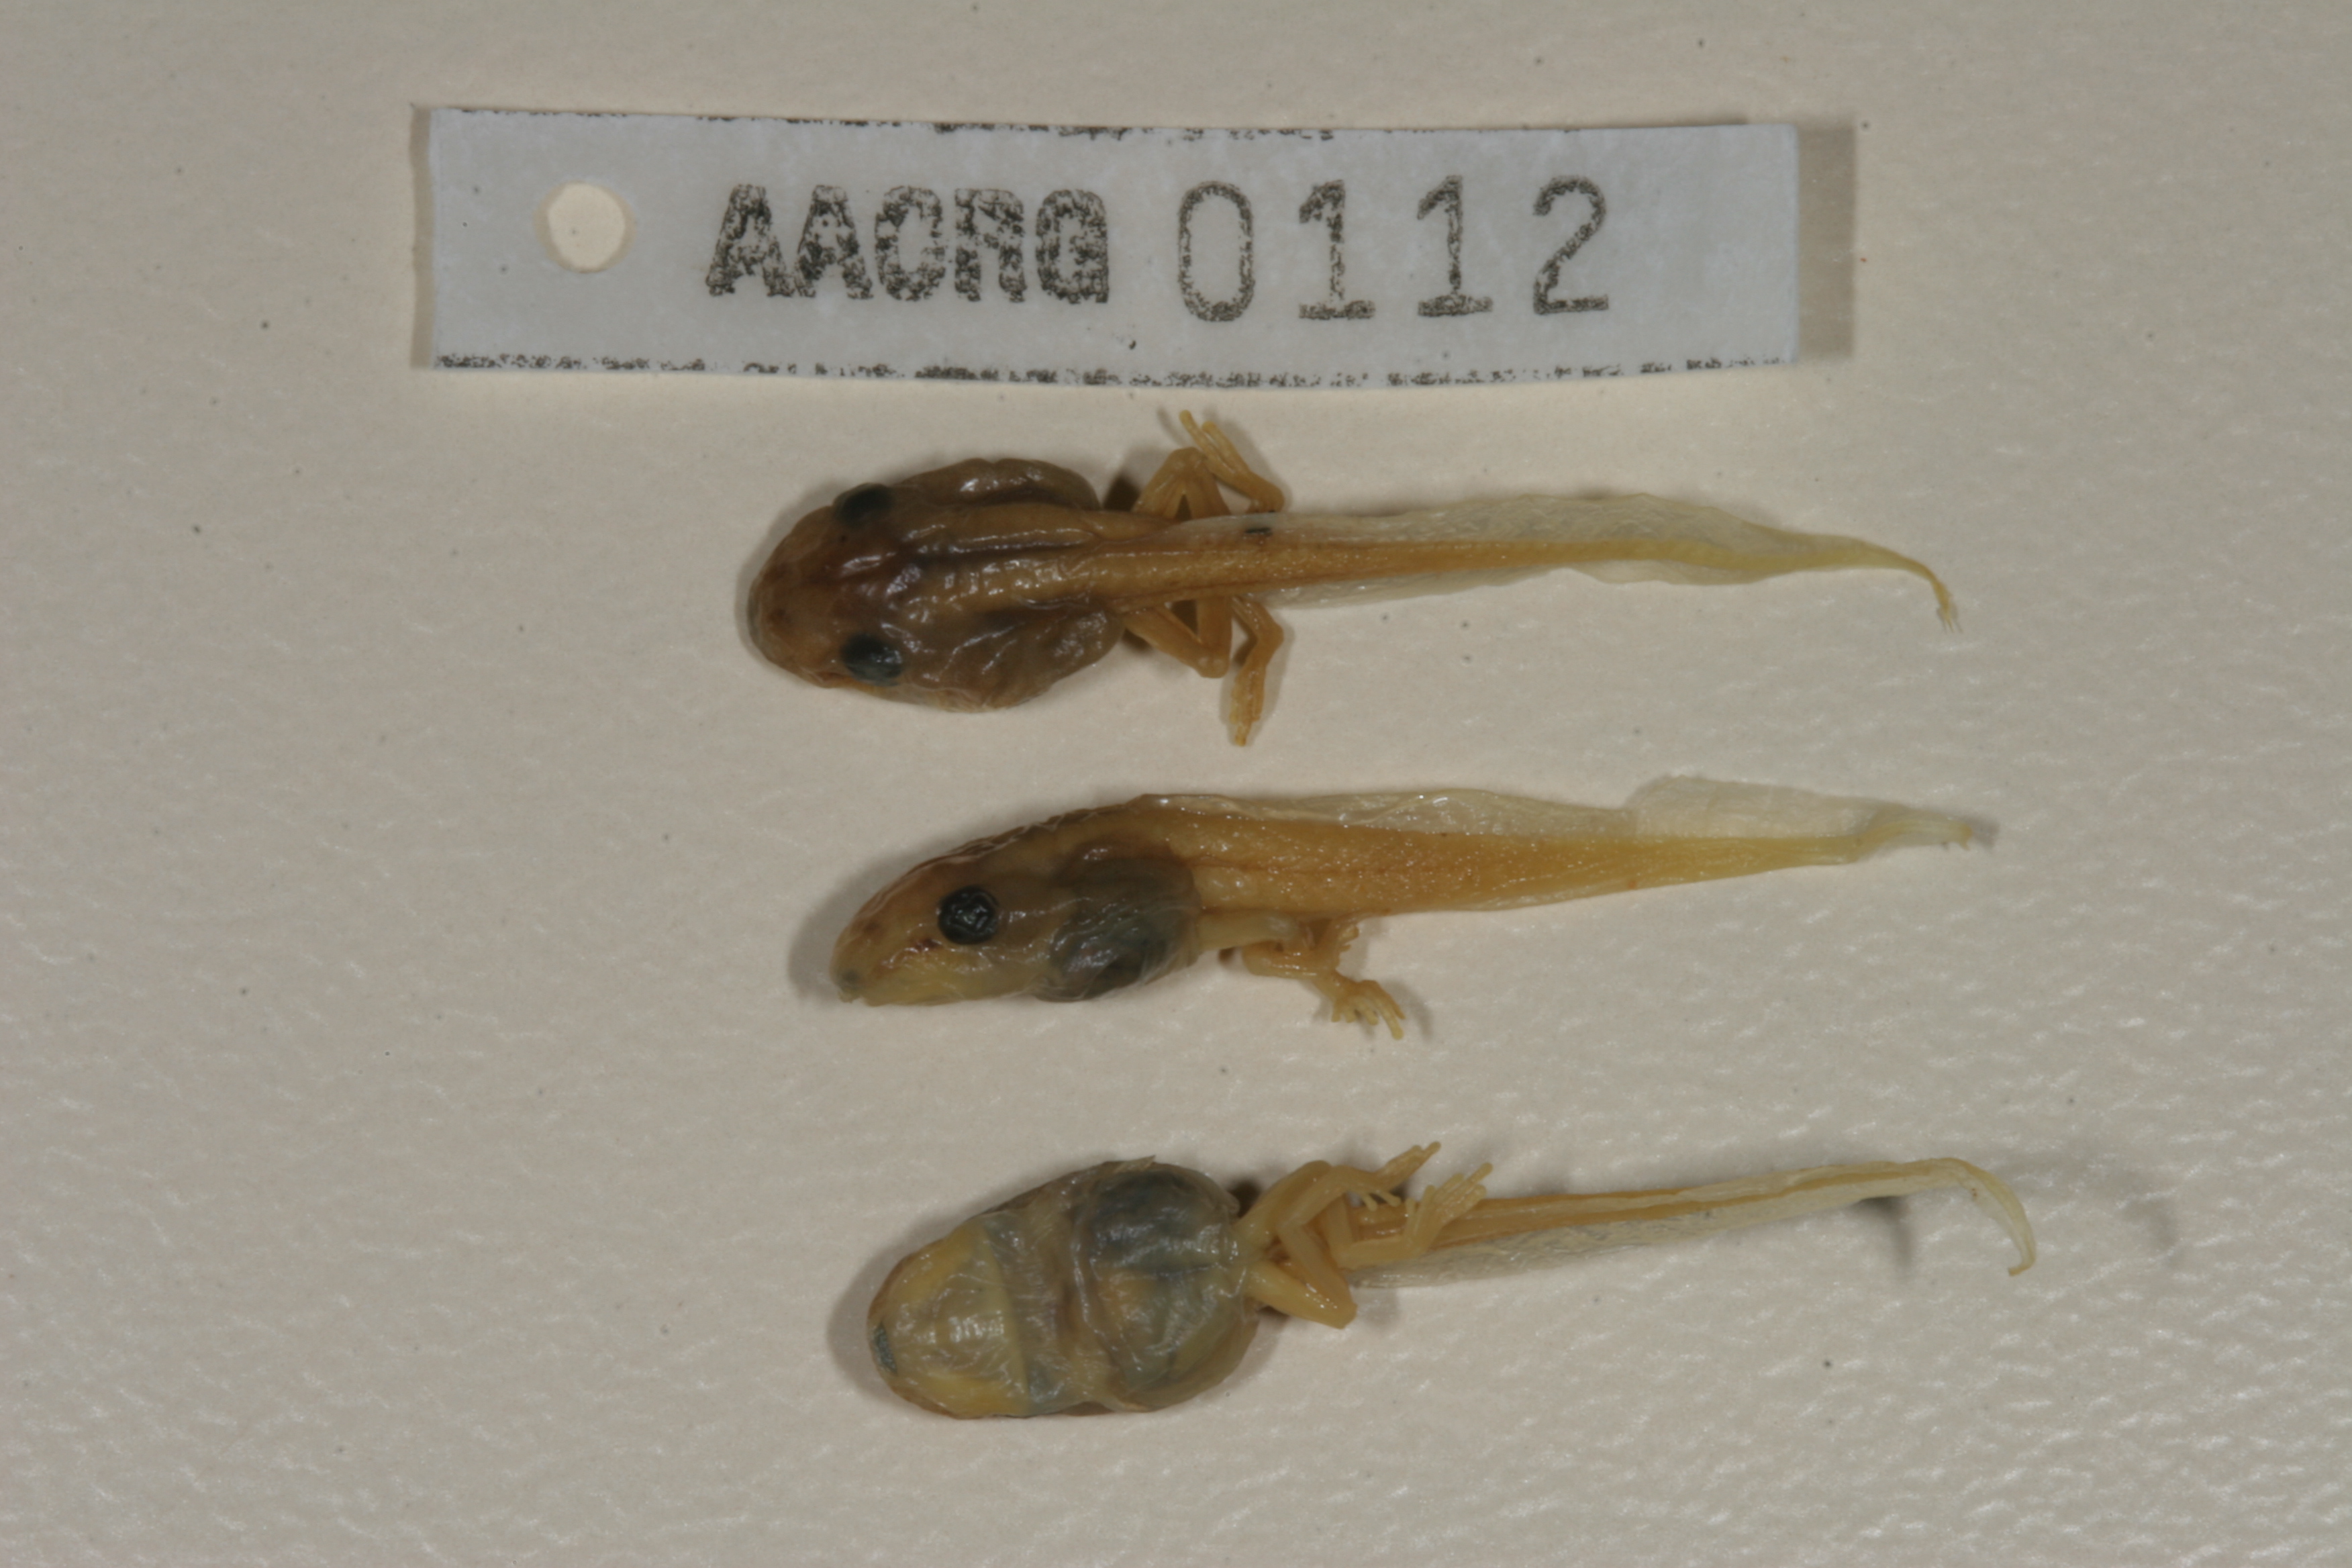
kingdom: Animalia
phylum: Chordata
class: Amphibia
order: Anura
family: Hyperoliidae
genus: Afrixalus
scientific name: Afrixalus aureus
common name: Golden banana frog
